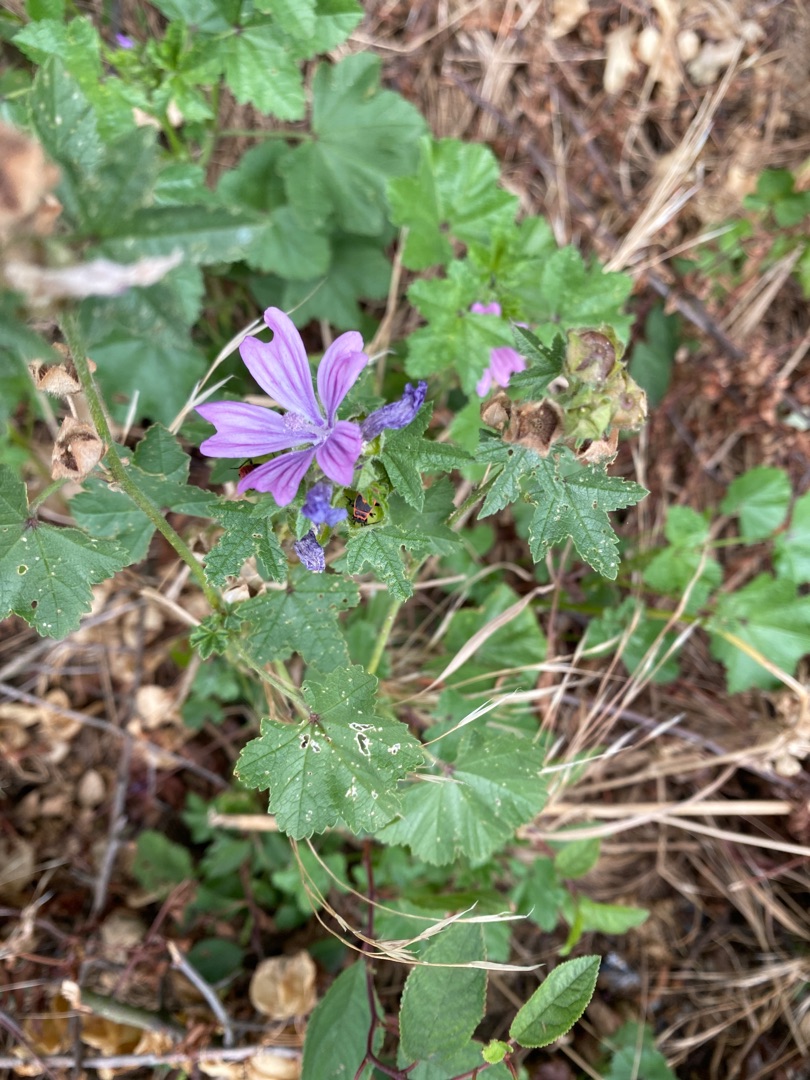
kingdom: Plantae
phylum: Tracheophyta
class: Magnoliopsida
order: Malvales
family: Malvaceae
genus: Malva
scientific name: Malva sylvestris
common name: Almindelig katost
